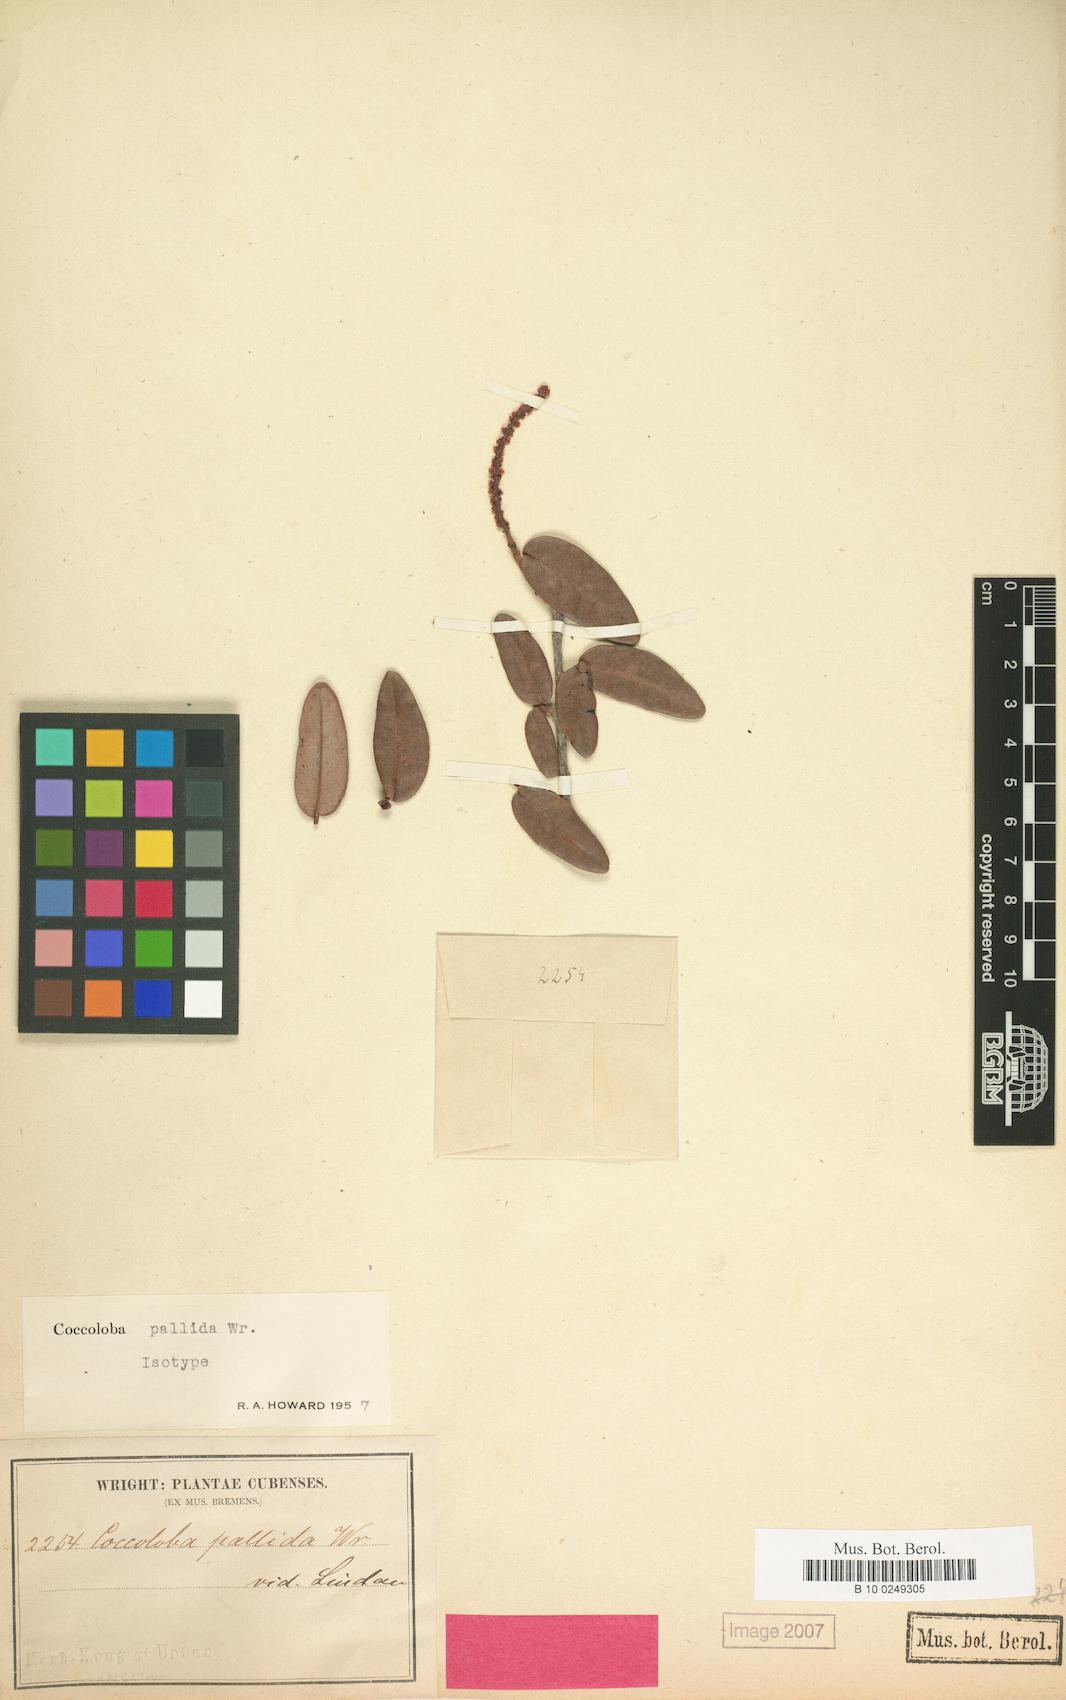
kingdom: Plantae
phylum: Tracheophyta
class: Magnoliopsida
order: Caryophyllales
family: Polygonaceae
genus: Coccoloba
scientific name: Coccoloba pallida
